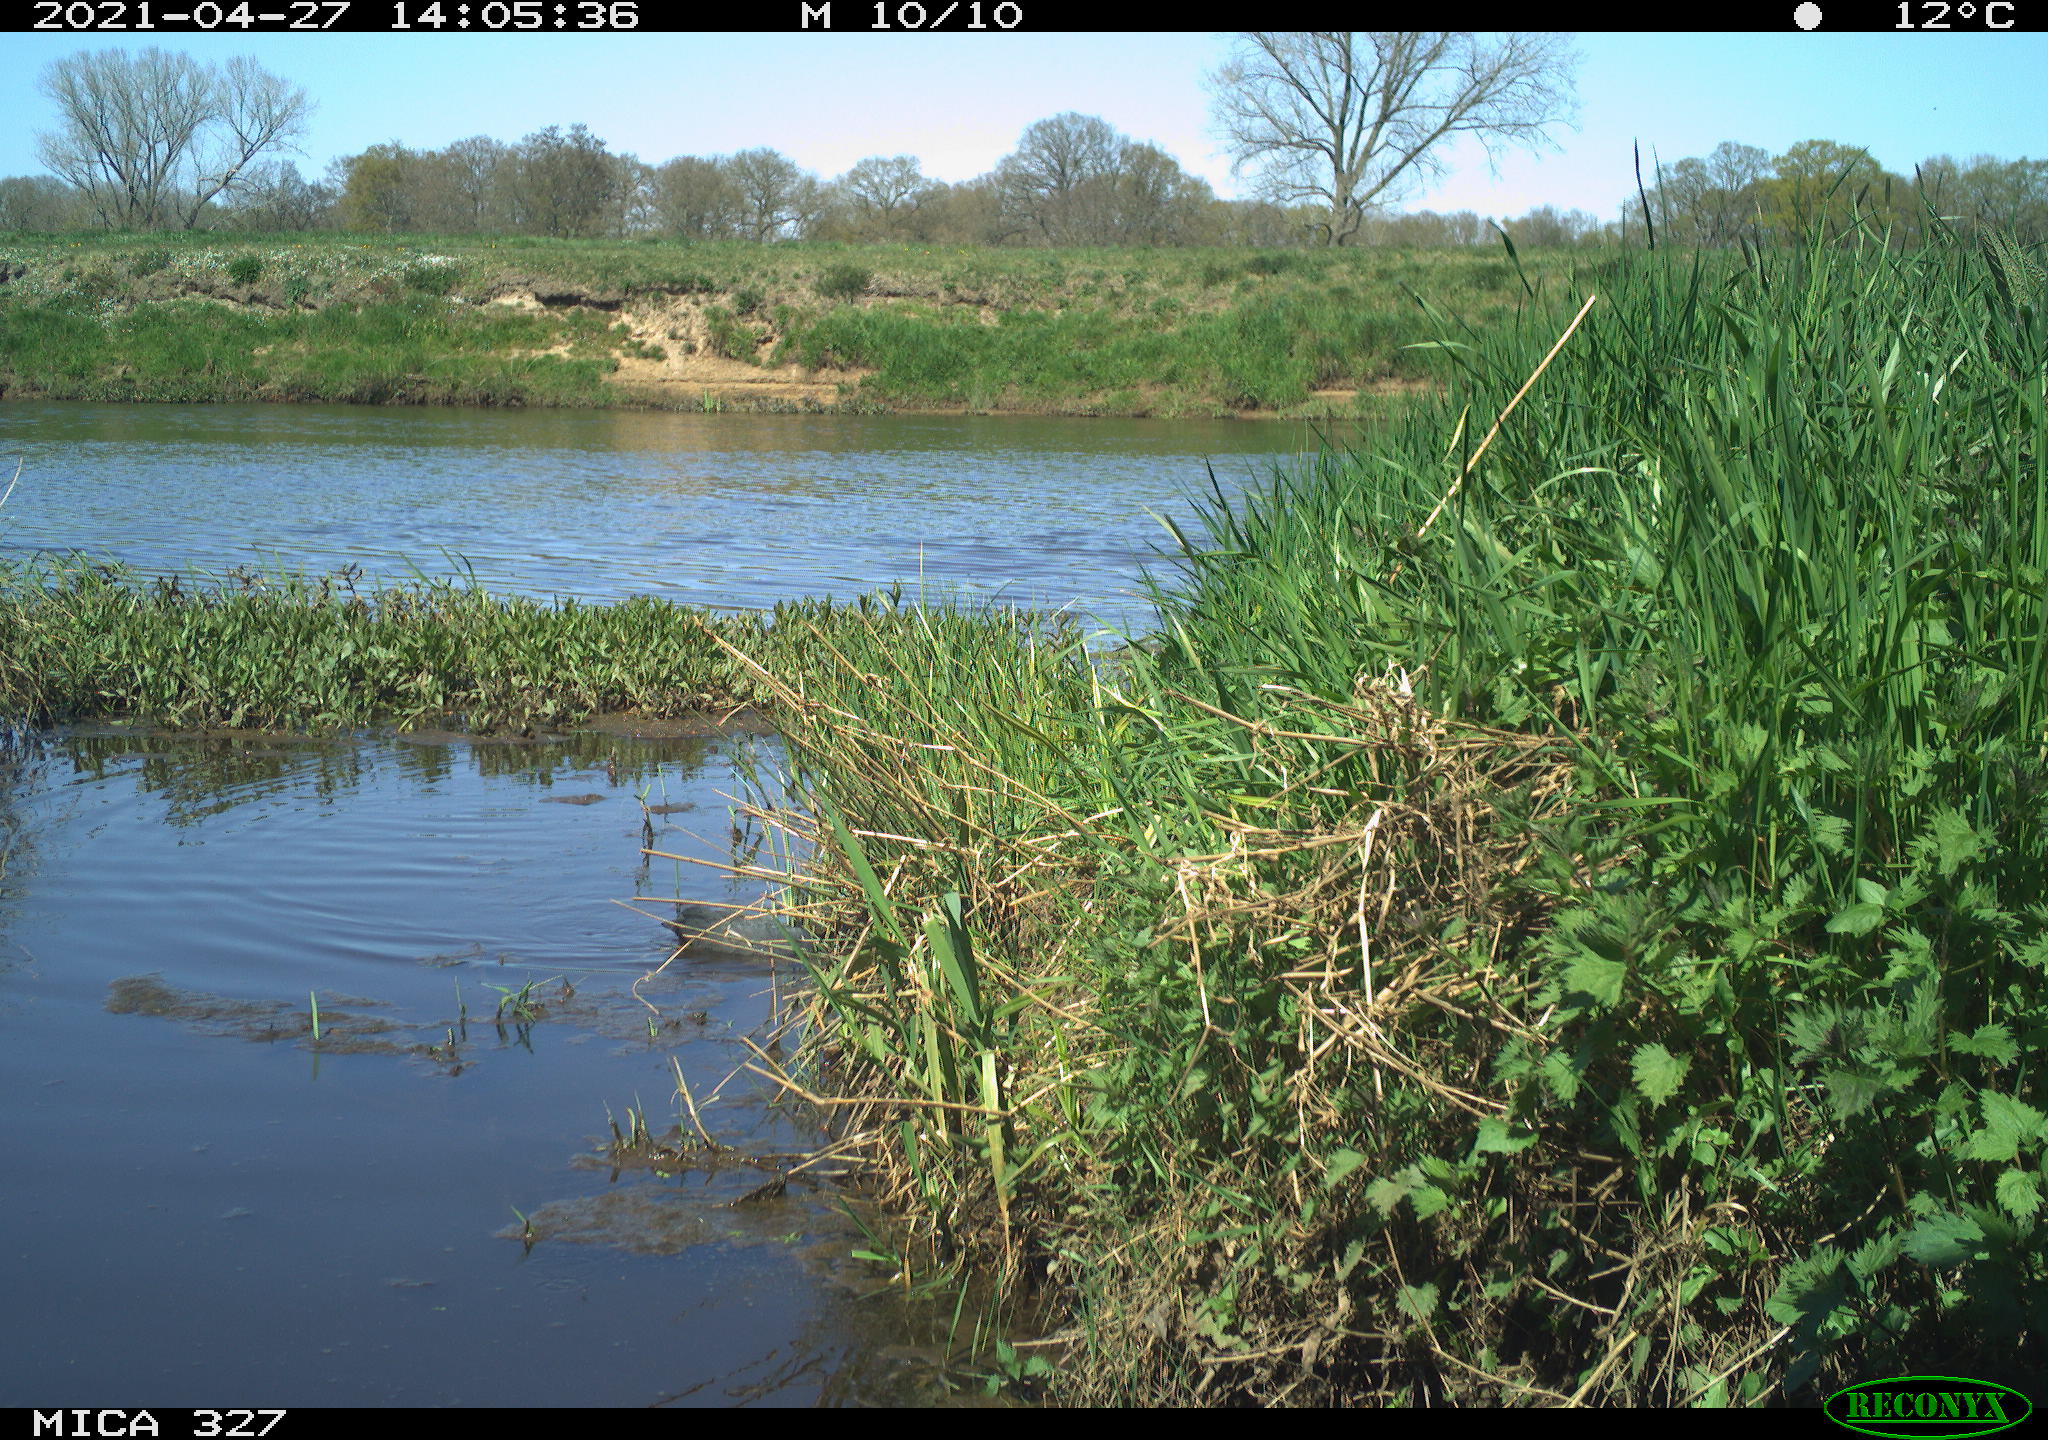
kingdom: Animalia
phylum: Chordata
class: Aves
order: Gruiformes
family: Rallidae
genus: Fulica
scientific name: Fulica atra
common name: Eurasian coot
